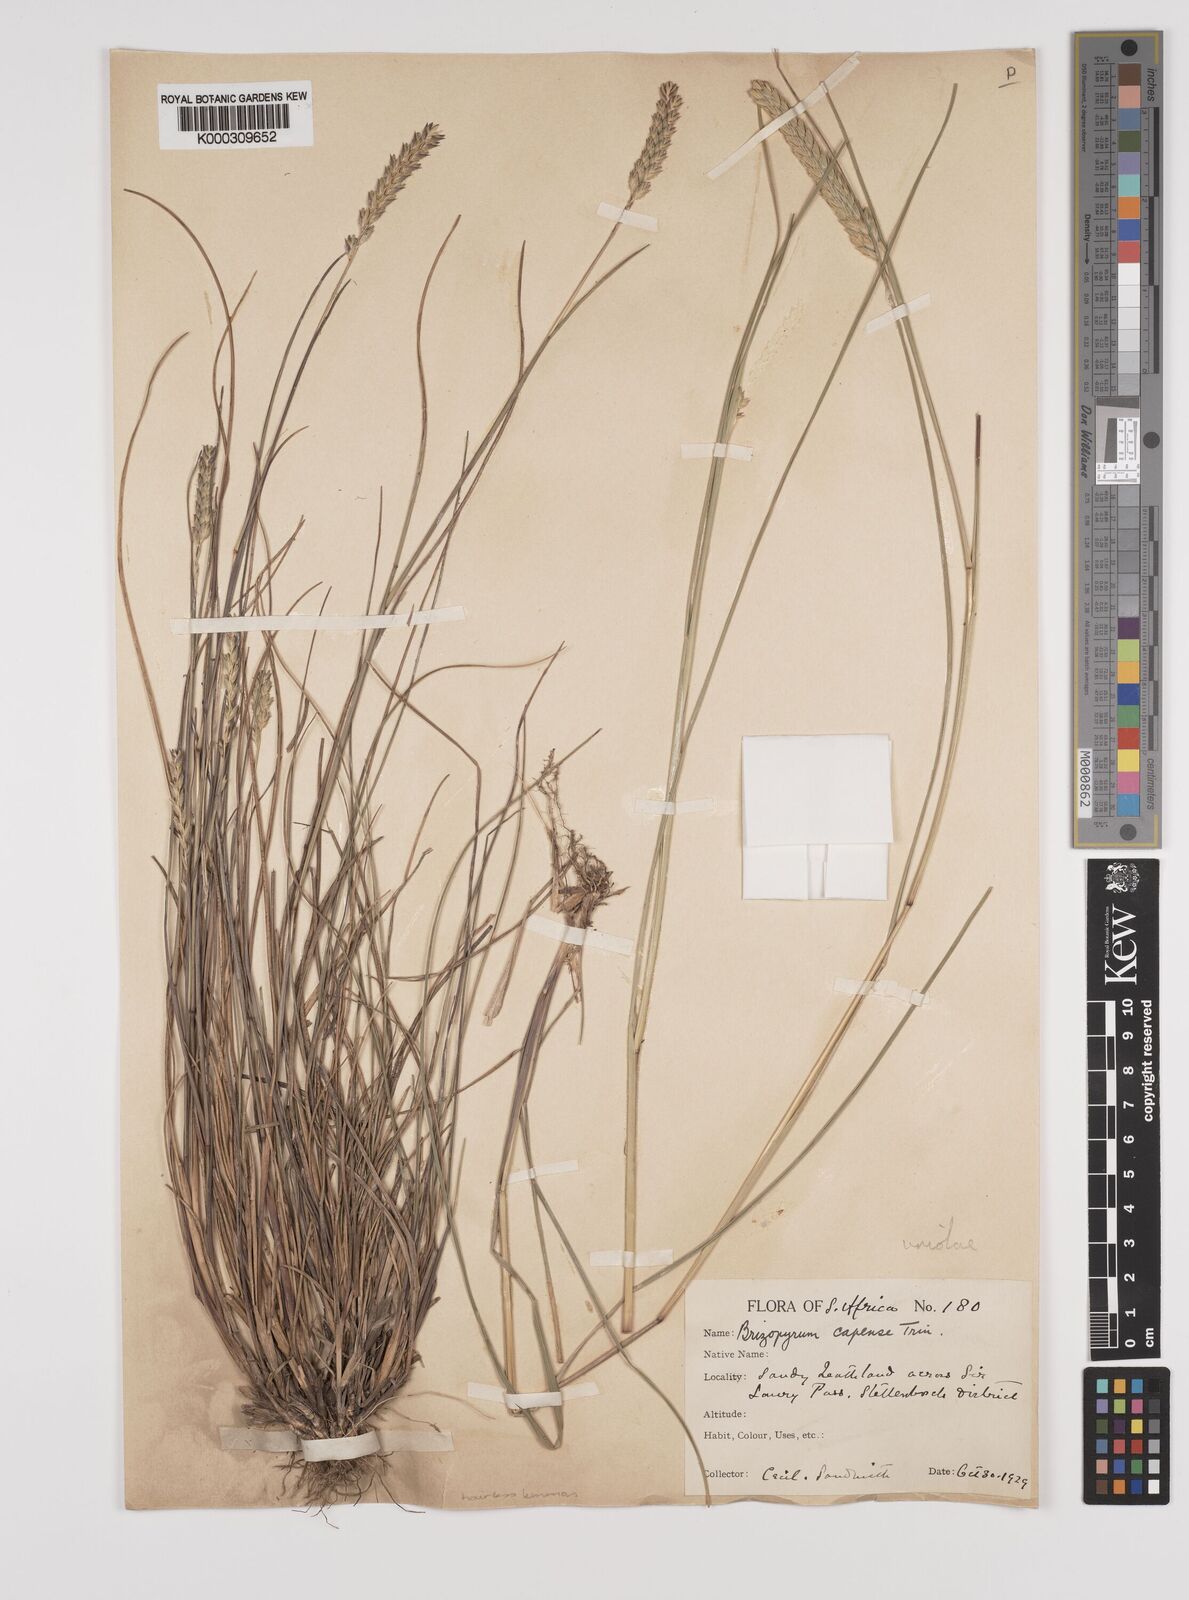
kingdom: Plantae
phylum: Tracheophyta
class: Liliopsida
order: Poales
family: Poaceae
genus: Tribolium
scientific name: Tribolium uniolae
